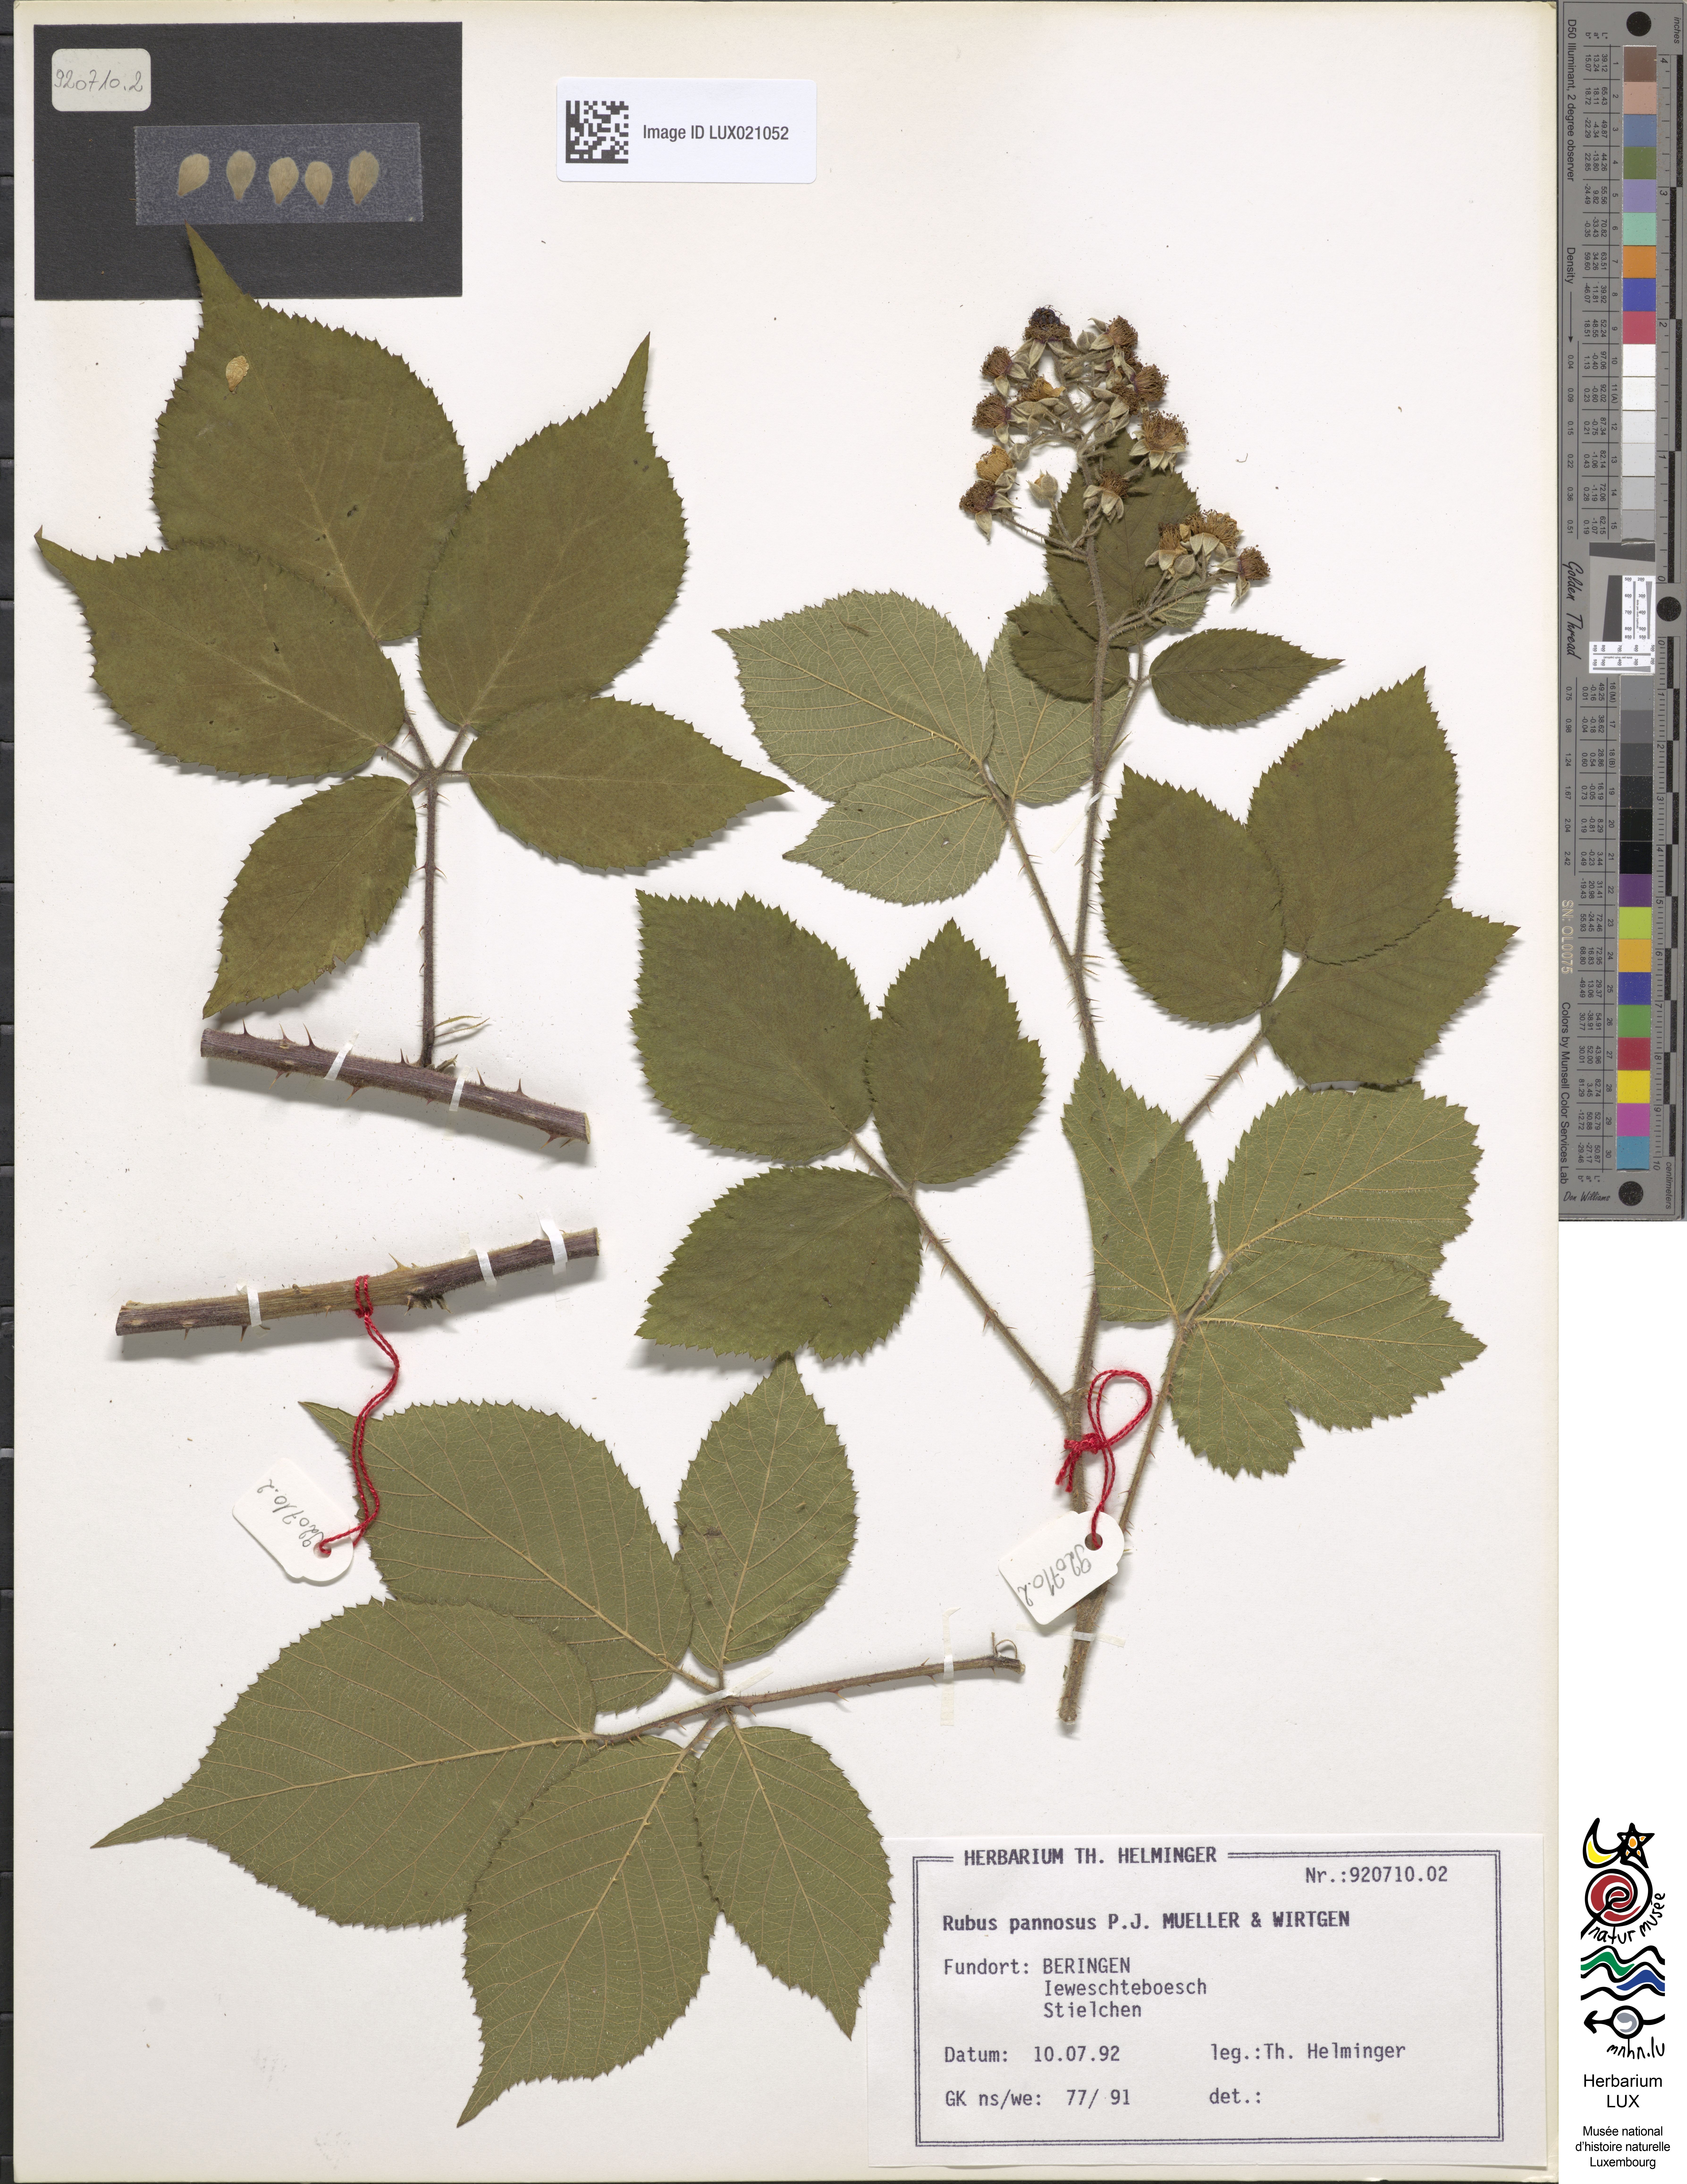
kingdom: Plantae
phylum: Tracheophyta
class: Magnoliopsida
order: Rosales
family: Rosaceae
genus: Rubus
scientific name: Rubus pannosus
